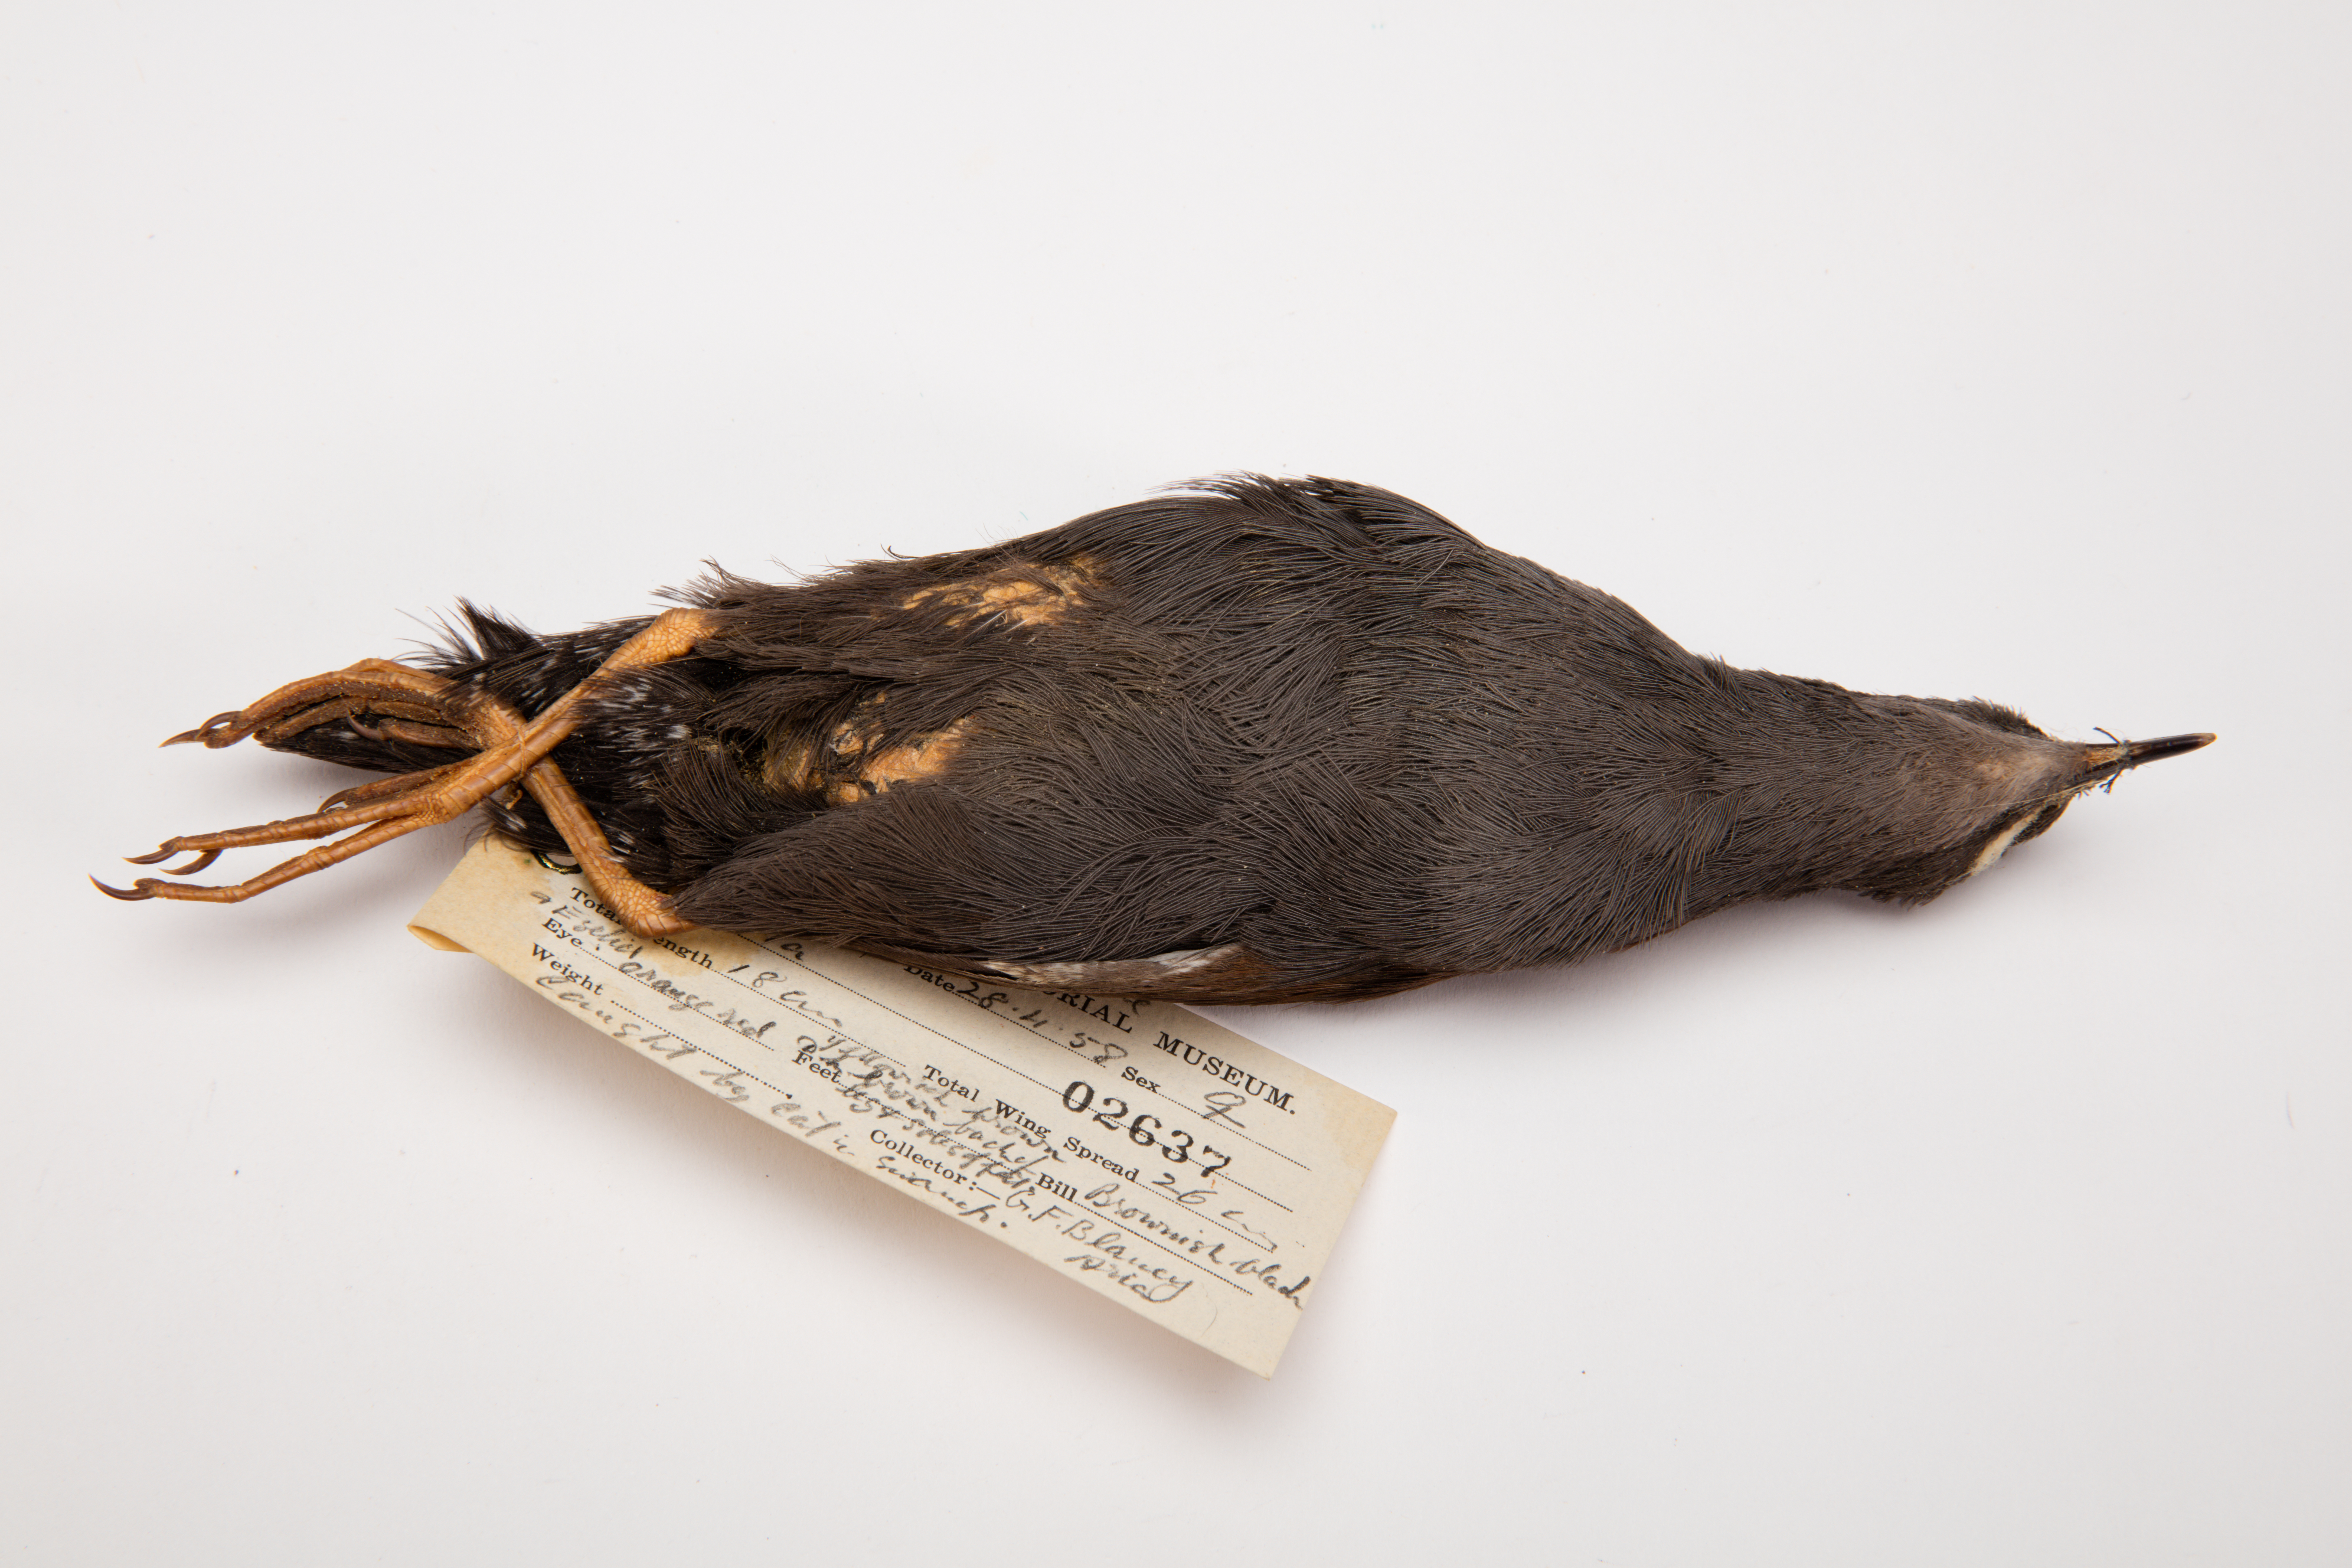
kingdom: Animalia
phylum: Chordata
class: Aves
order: Gruiformes
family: Rallidae
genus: Porzana
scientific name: Porzana tabuensis
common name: Spotless crake
